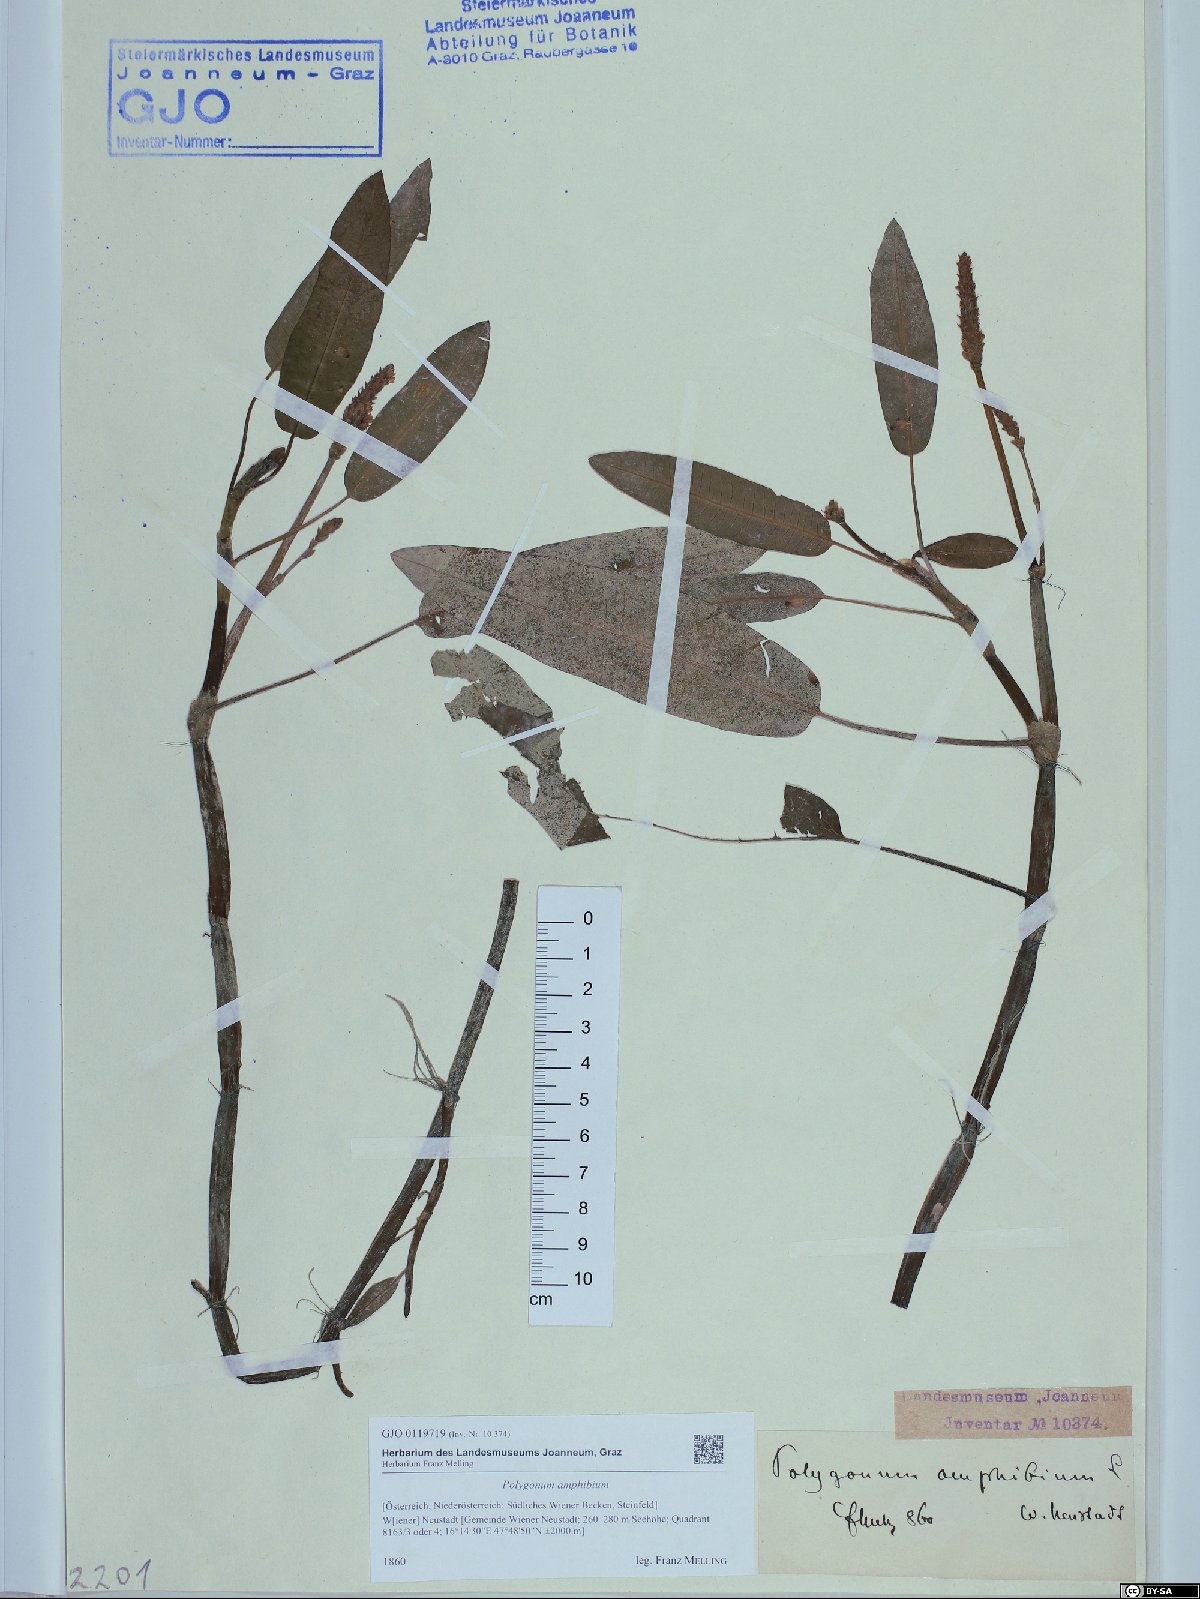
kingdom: Plantae
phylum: Tracheophyta
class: Magnoliopsida
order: Caryophyllales
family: Polygonaceae
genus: Persicaria
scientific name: Persicaria amphibia
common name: Amphibious bistort
